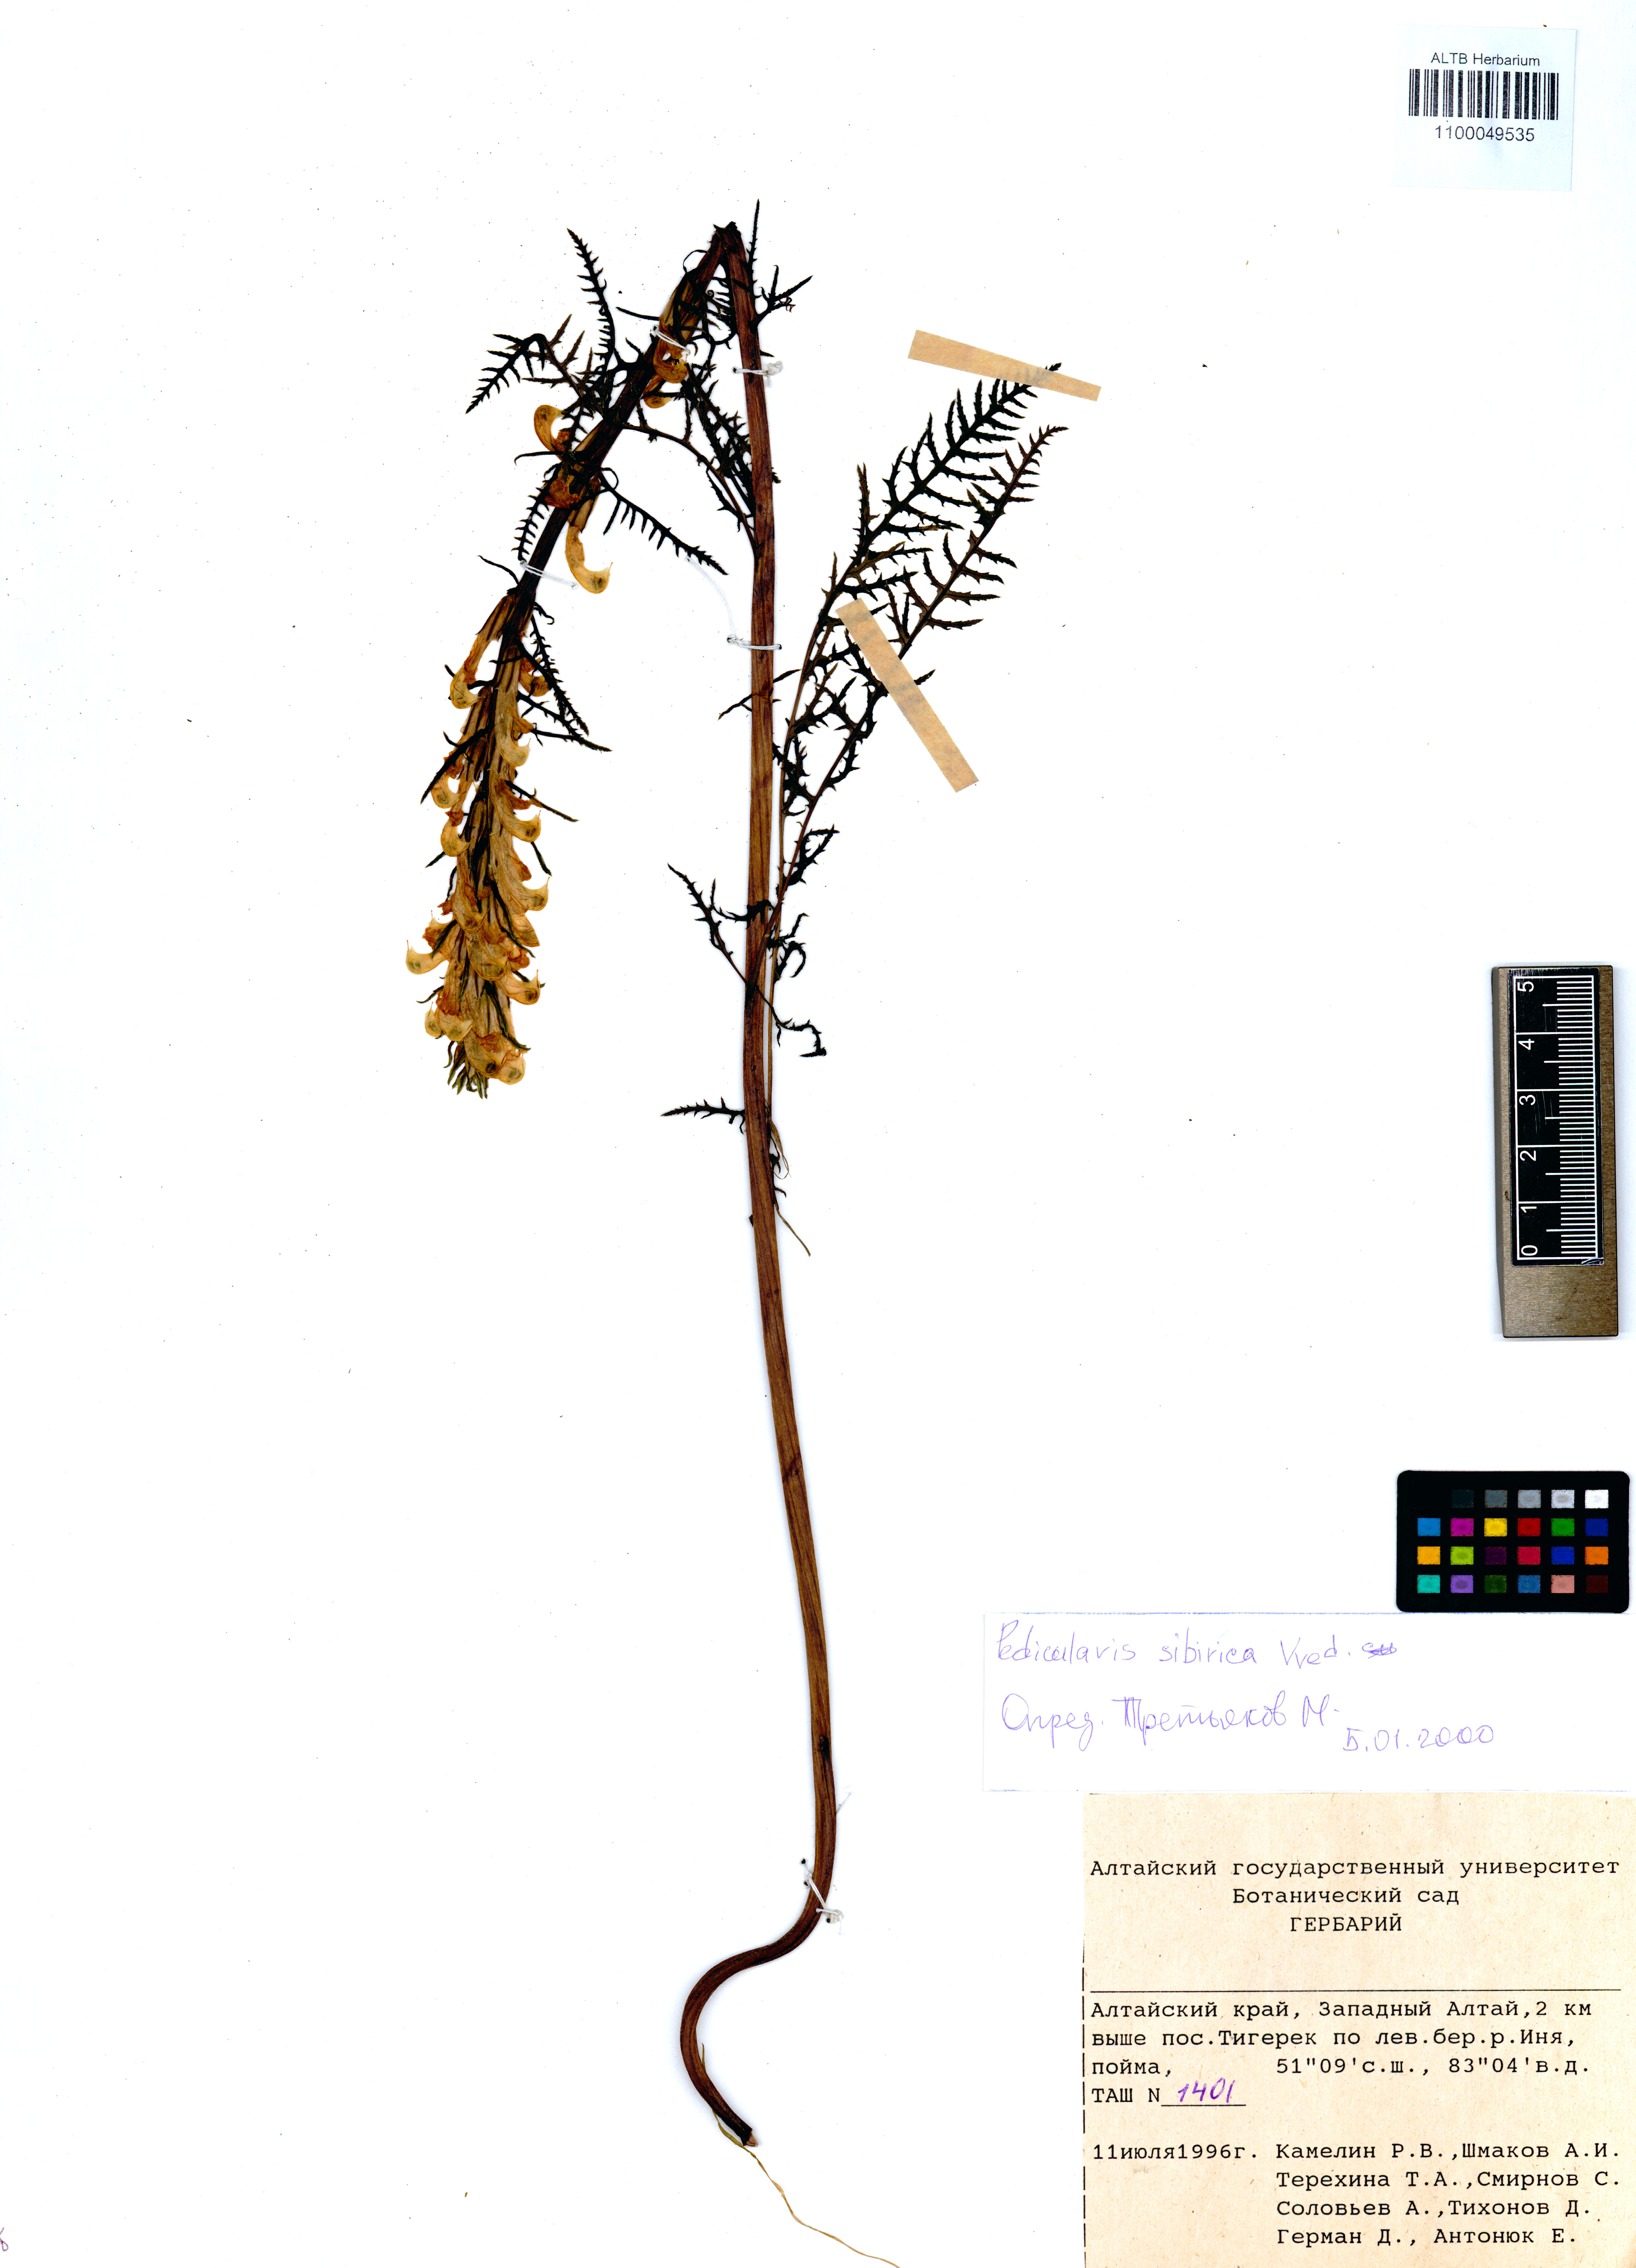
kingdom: Plantae
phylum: Tracheophyta
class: Magnoliopsida
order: Lamiales
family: Orobanchaceae
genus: Pedicularis
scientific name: Pedicularis sibirica
